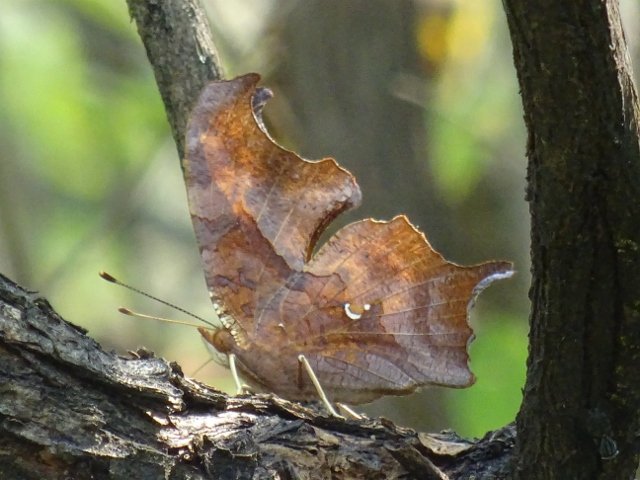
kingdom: Animalia
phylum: Arthropoda
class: Insecta
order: Lepidoptera
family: Nymphalidae
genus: Polygonia
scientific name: Polygonia interrogationis
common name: Question Mark
